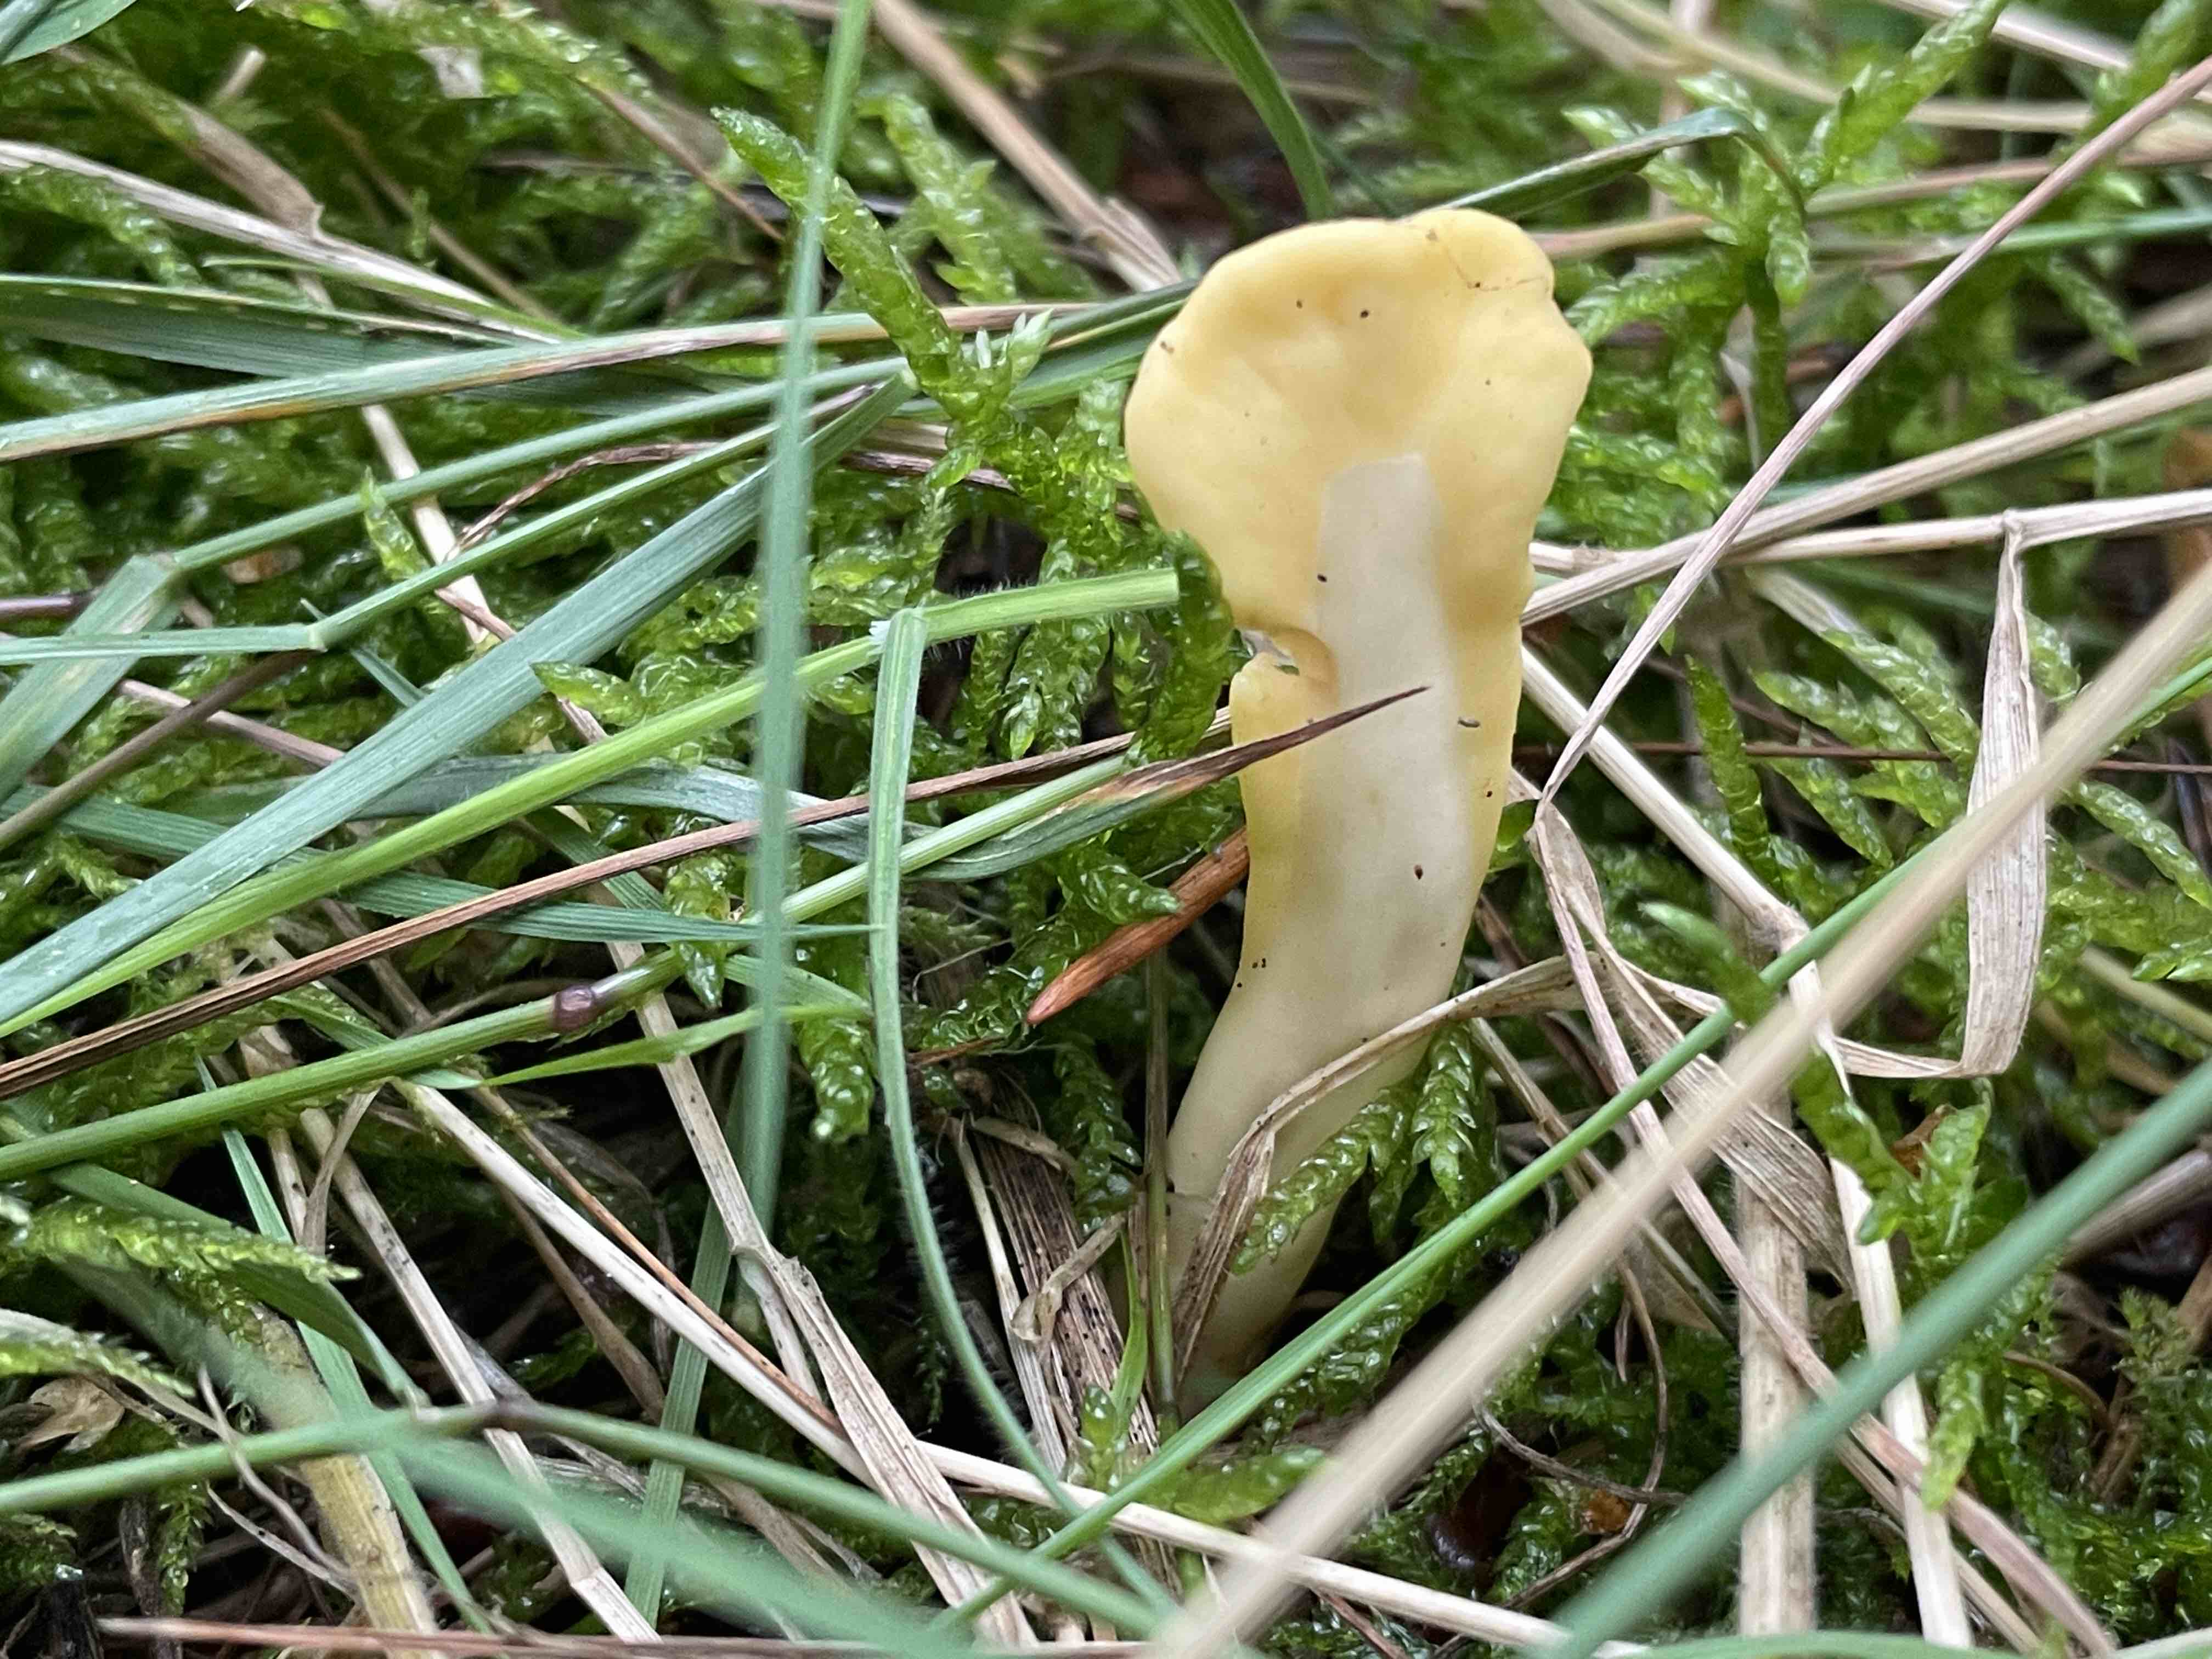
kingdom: Fungi
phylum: Ascomycota
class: Leotiomycetes
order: Rhytismatales
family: Cudoniaceae
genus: Spathularia
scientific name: Spathularia flavida
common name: gul spatelsvamp
